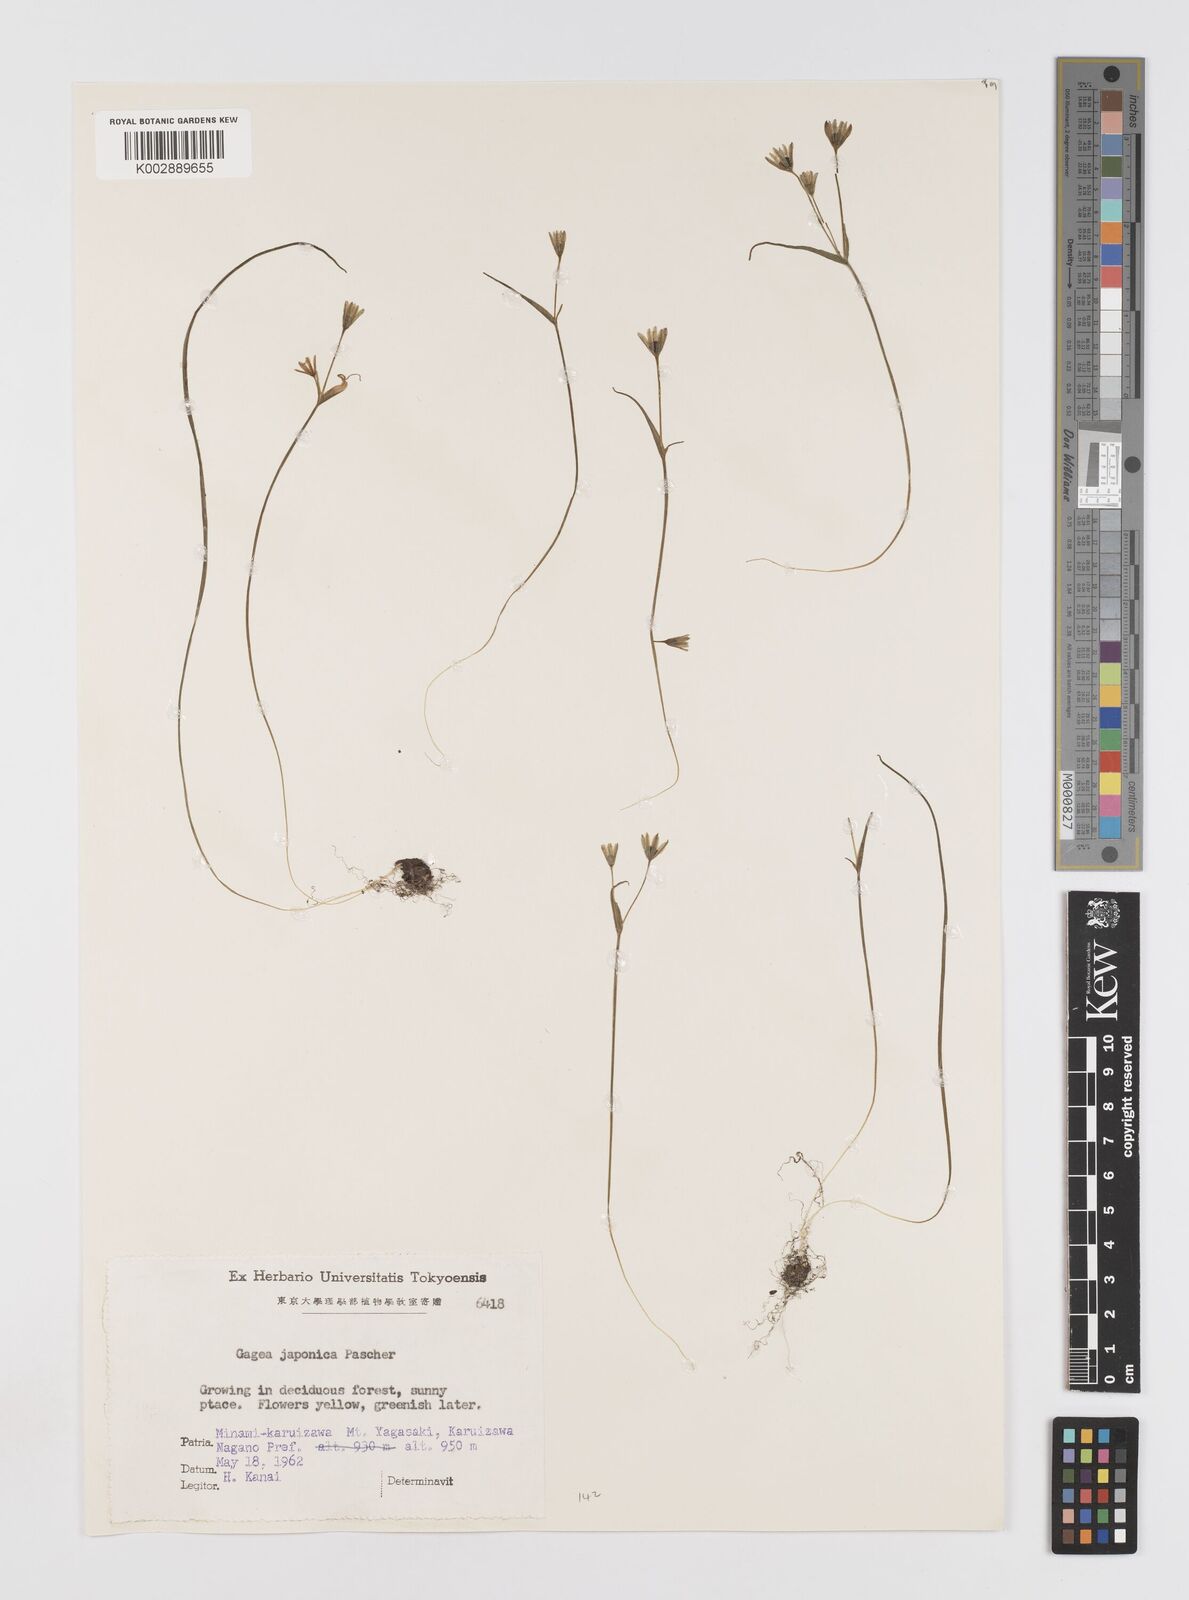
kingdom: Plantae
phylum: Tracheophyta
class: Liliopsida
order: Liliales
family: Liliaceae
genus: Gagea
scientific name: Gagea japonica
